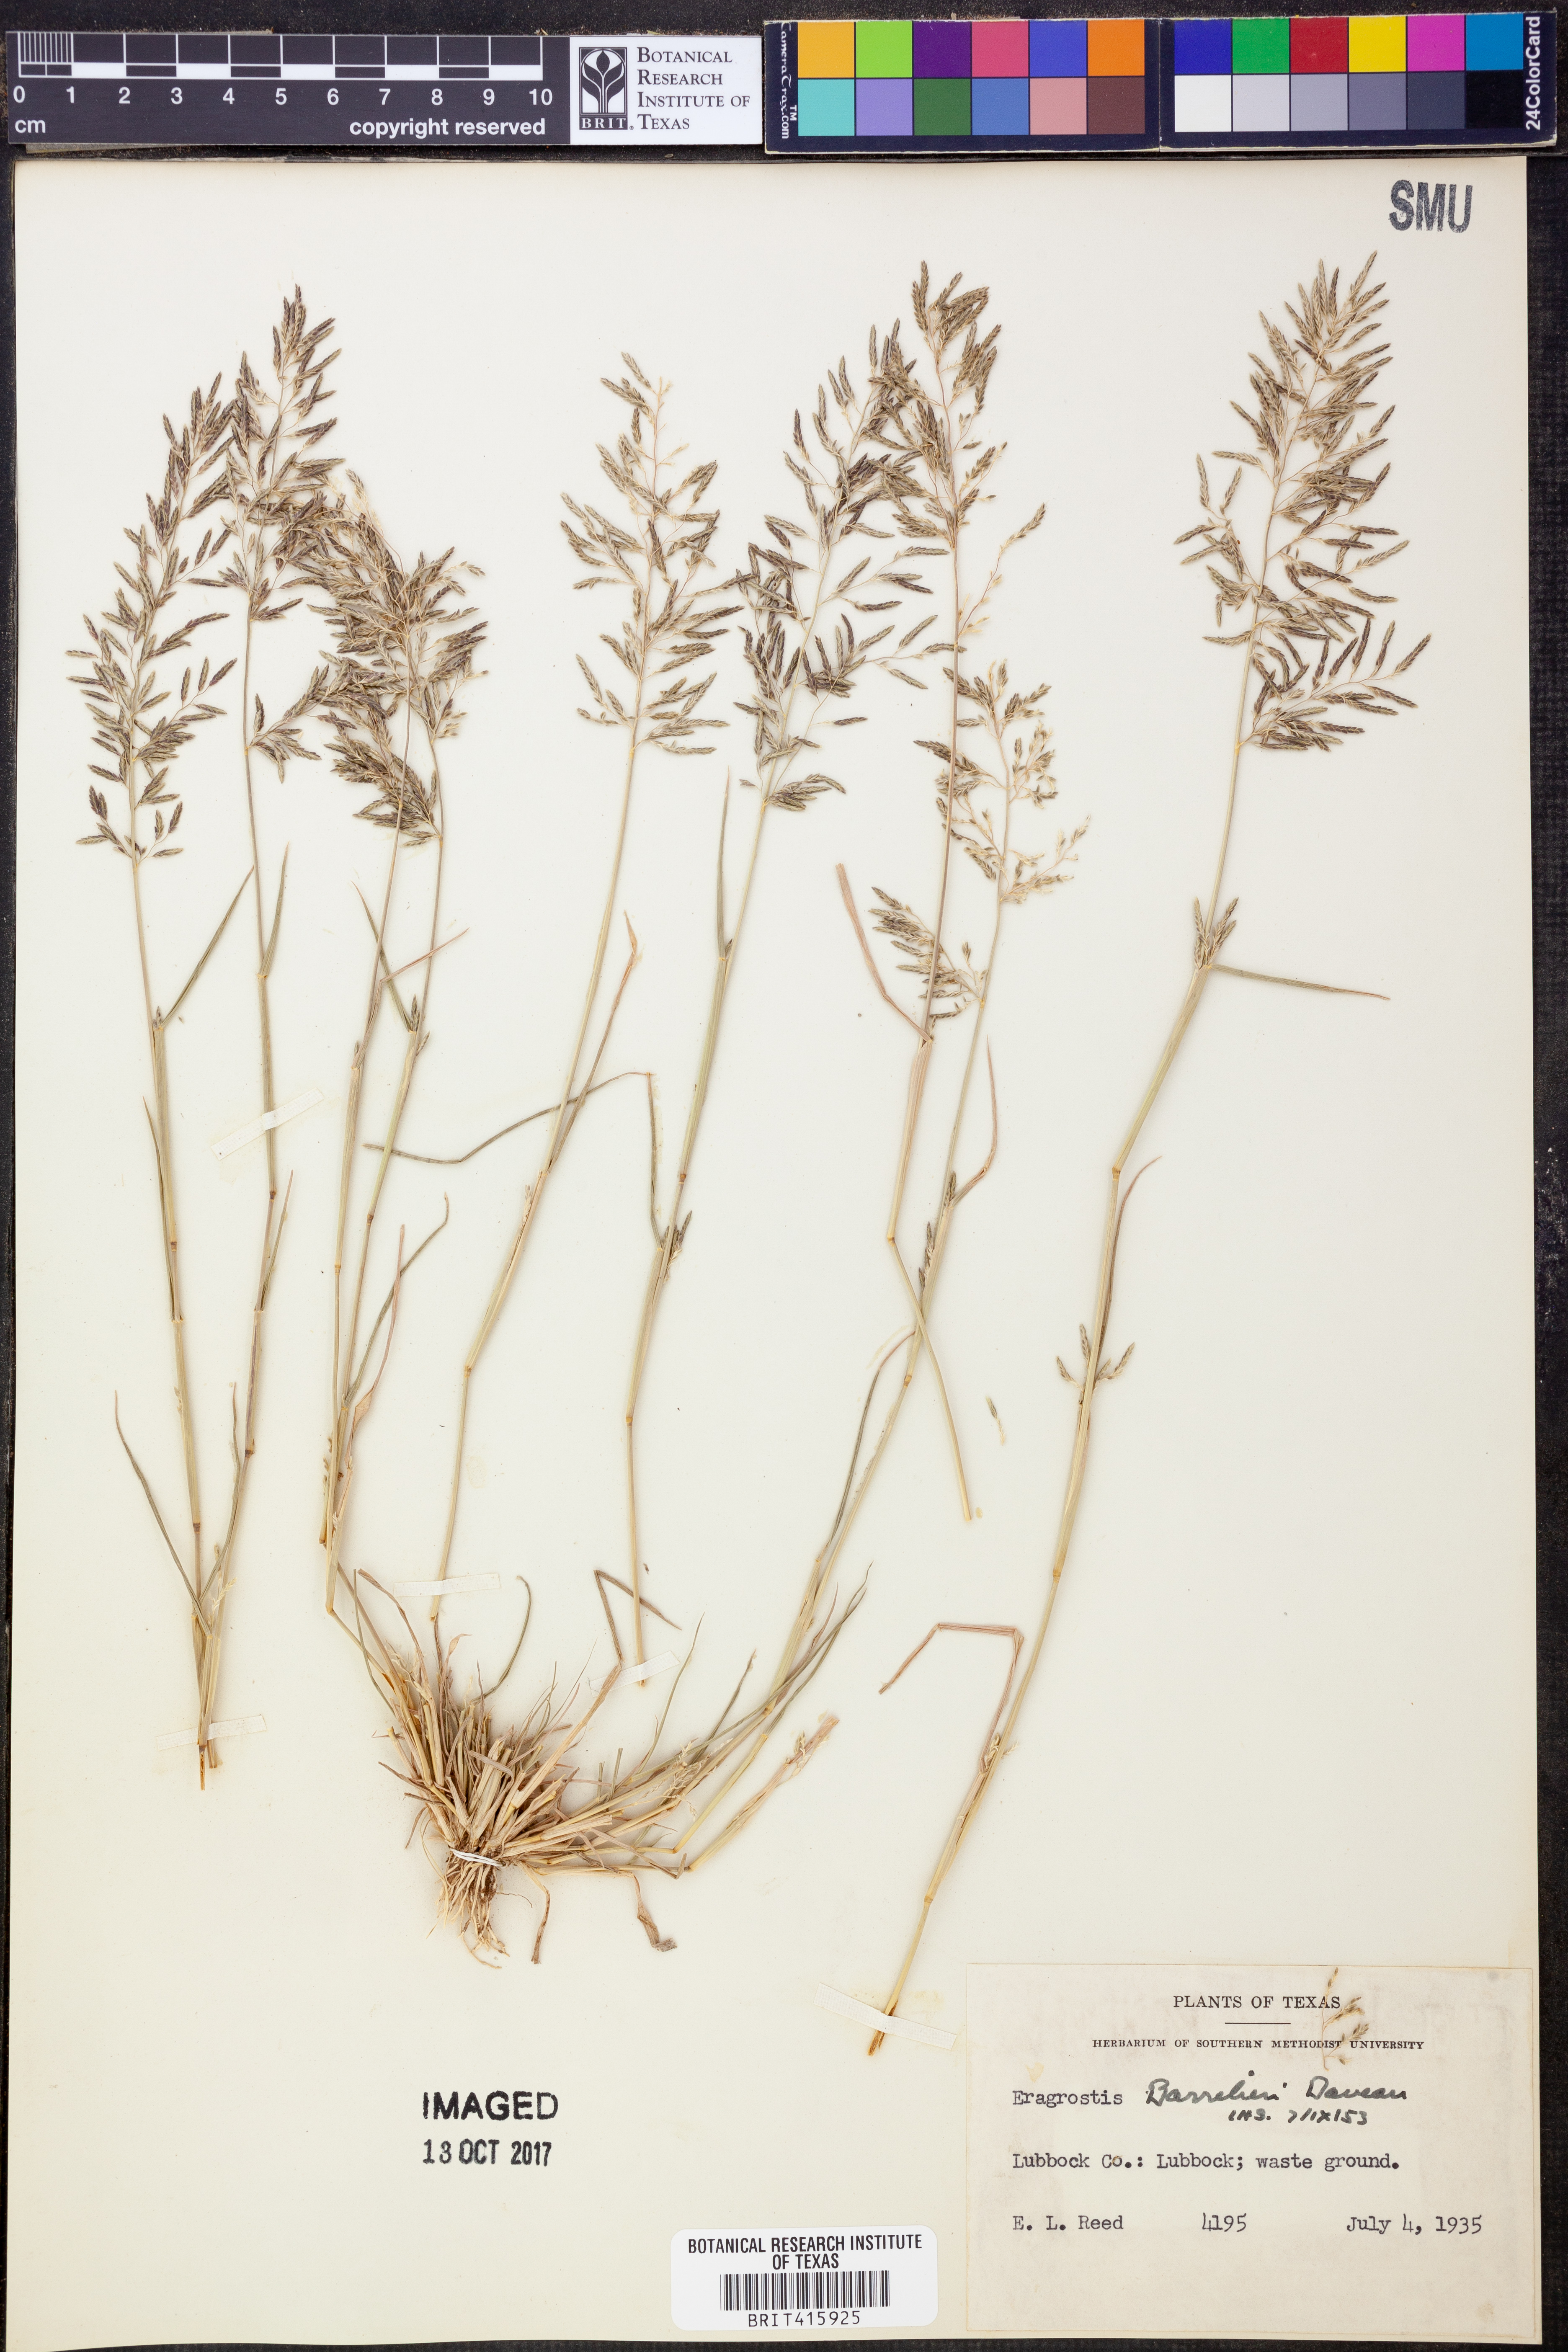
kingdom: Plantae
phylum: Tracheophyta
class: Liliopsida
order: Poales
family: Poaceae
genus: Eragrostis
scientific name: Eragrostis barrelieri
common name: Mediterranean lovegrass
